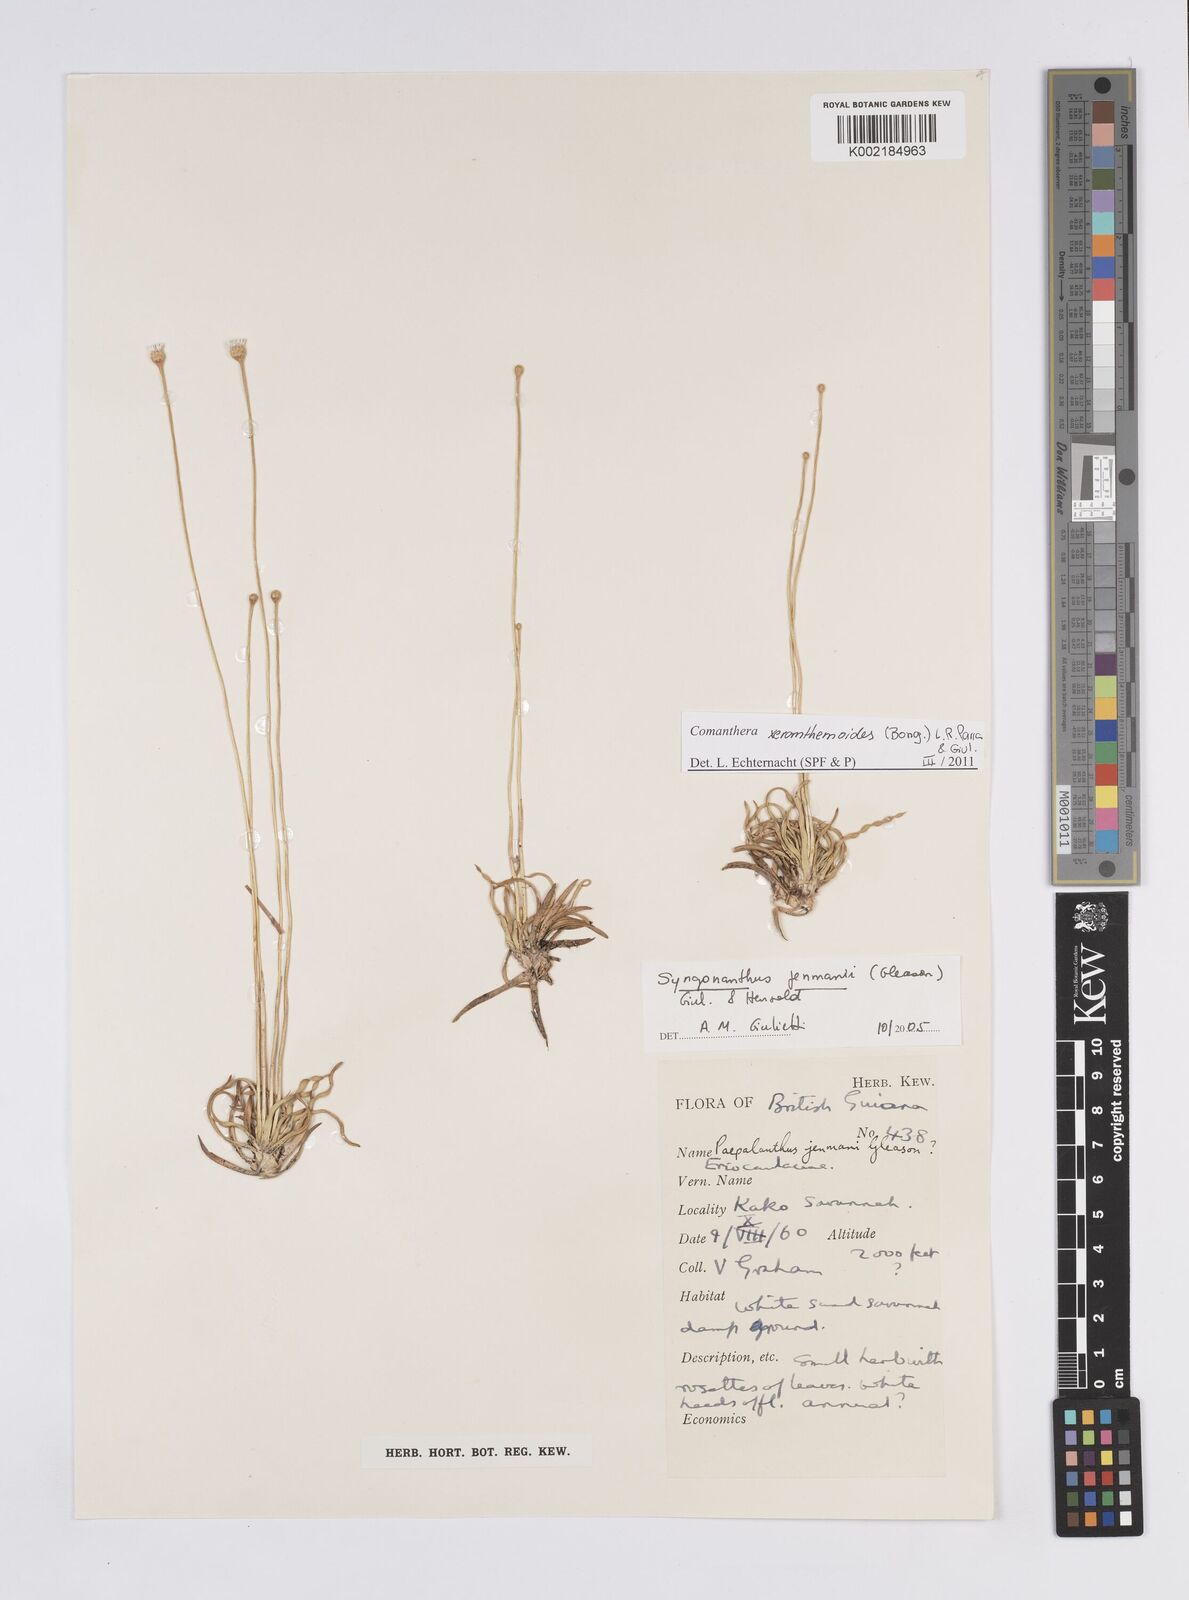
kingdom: Plantae
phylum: Tracheophyta
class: Liliopsida
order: Poales
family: Eriocaulaceae
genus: Comanthera
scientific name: Comanthera xeranthemoides
